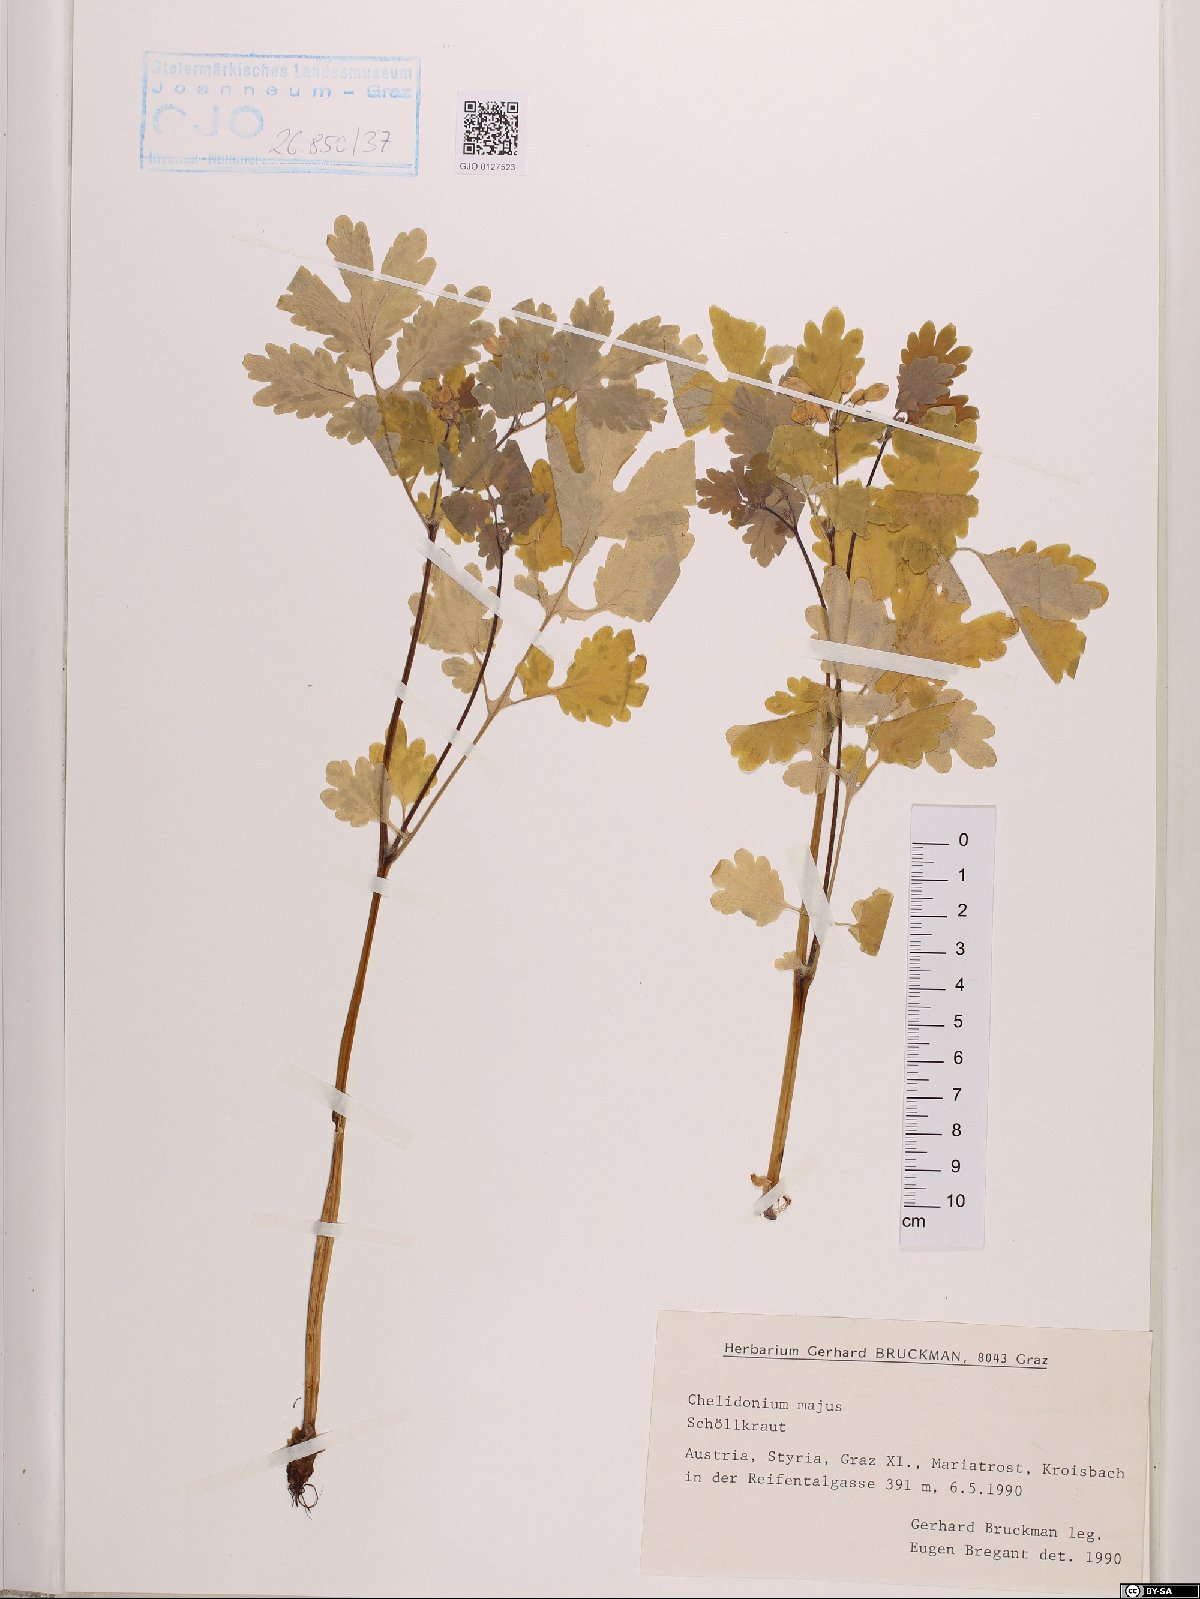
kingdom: Plantae
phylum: Tracheophyta
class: Magnoliopsida
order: Ranunculales
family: Papaveraceae
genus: Chelidonium
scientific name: Chelidonium majus
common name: Greater celandine
